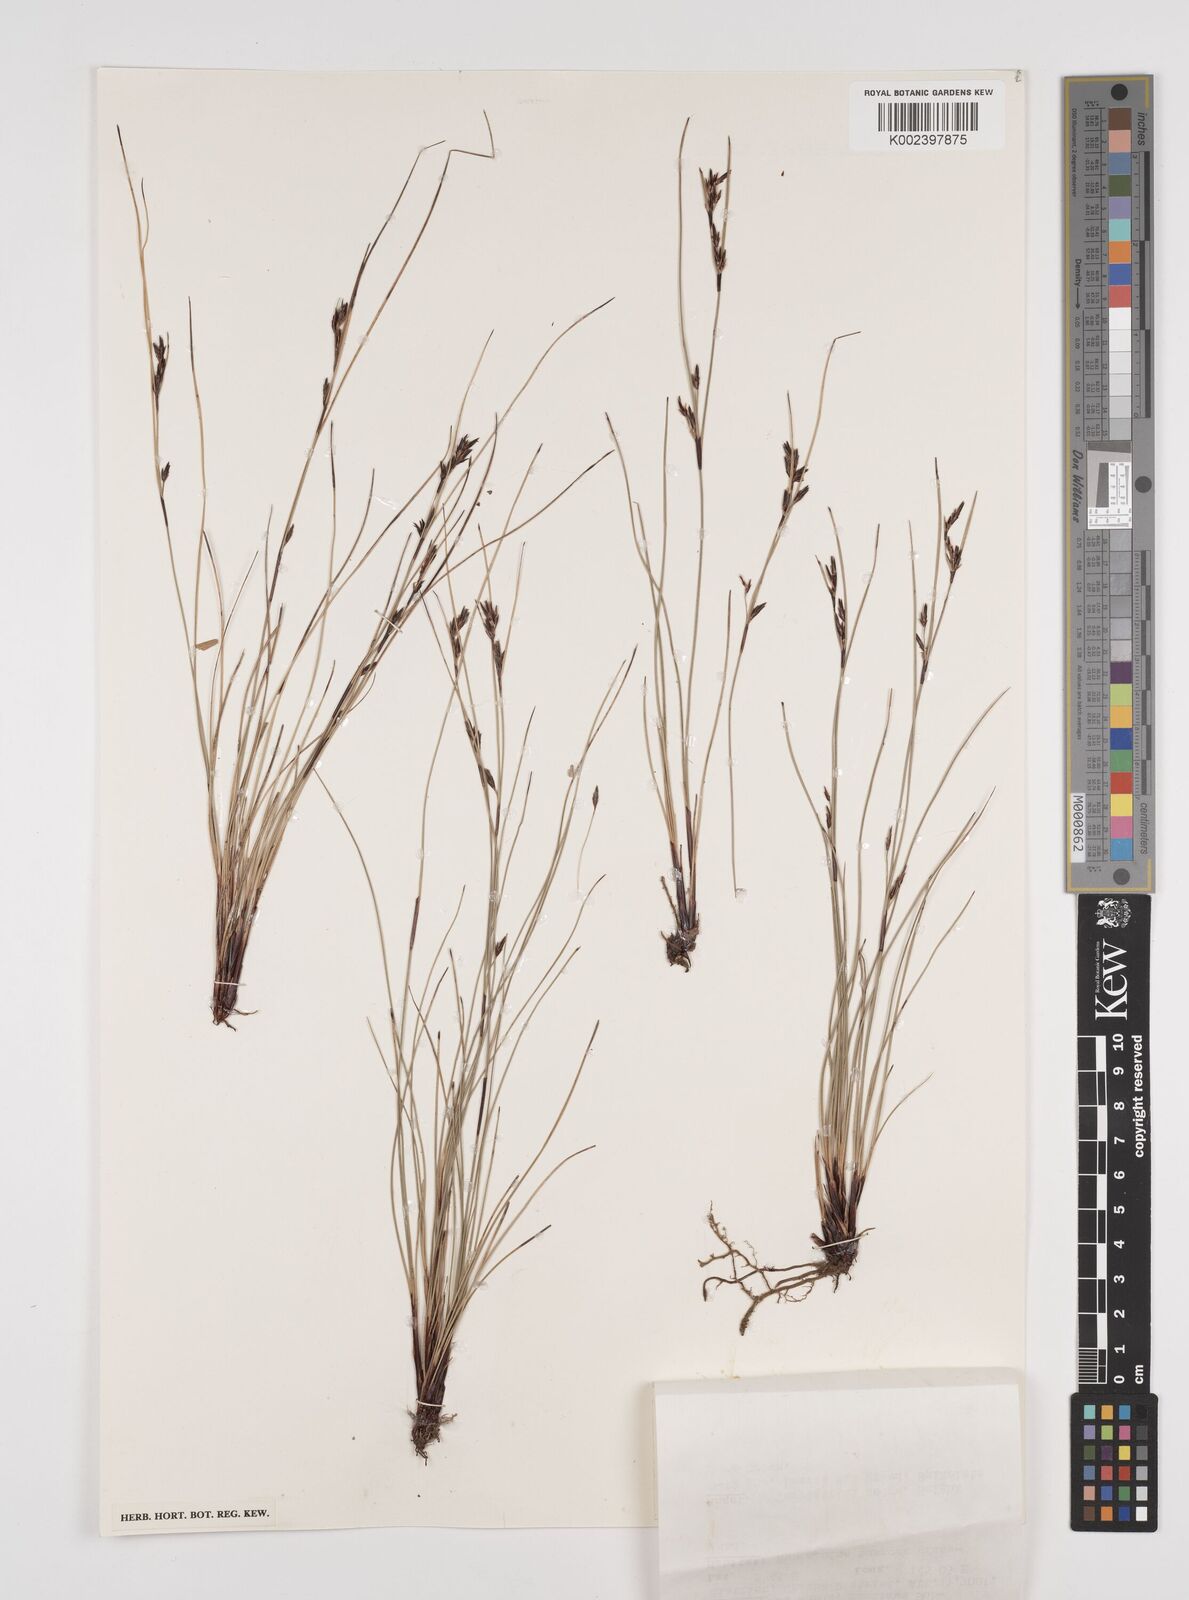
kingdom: Plantae
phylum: Tracheophyta
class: Liliopsida
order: Poales
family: Cyperaceae
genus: Schoenus
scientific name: Schoenus curvulus
